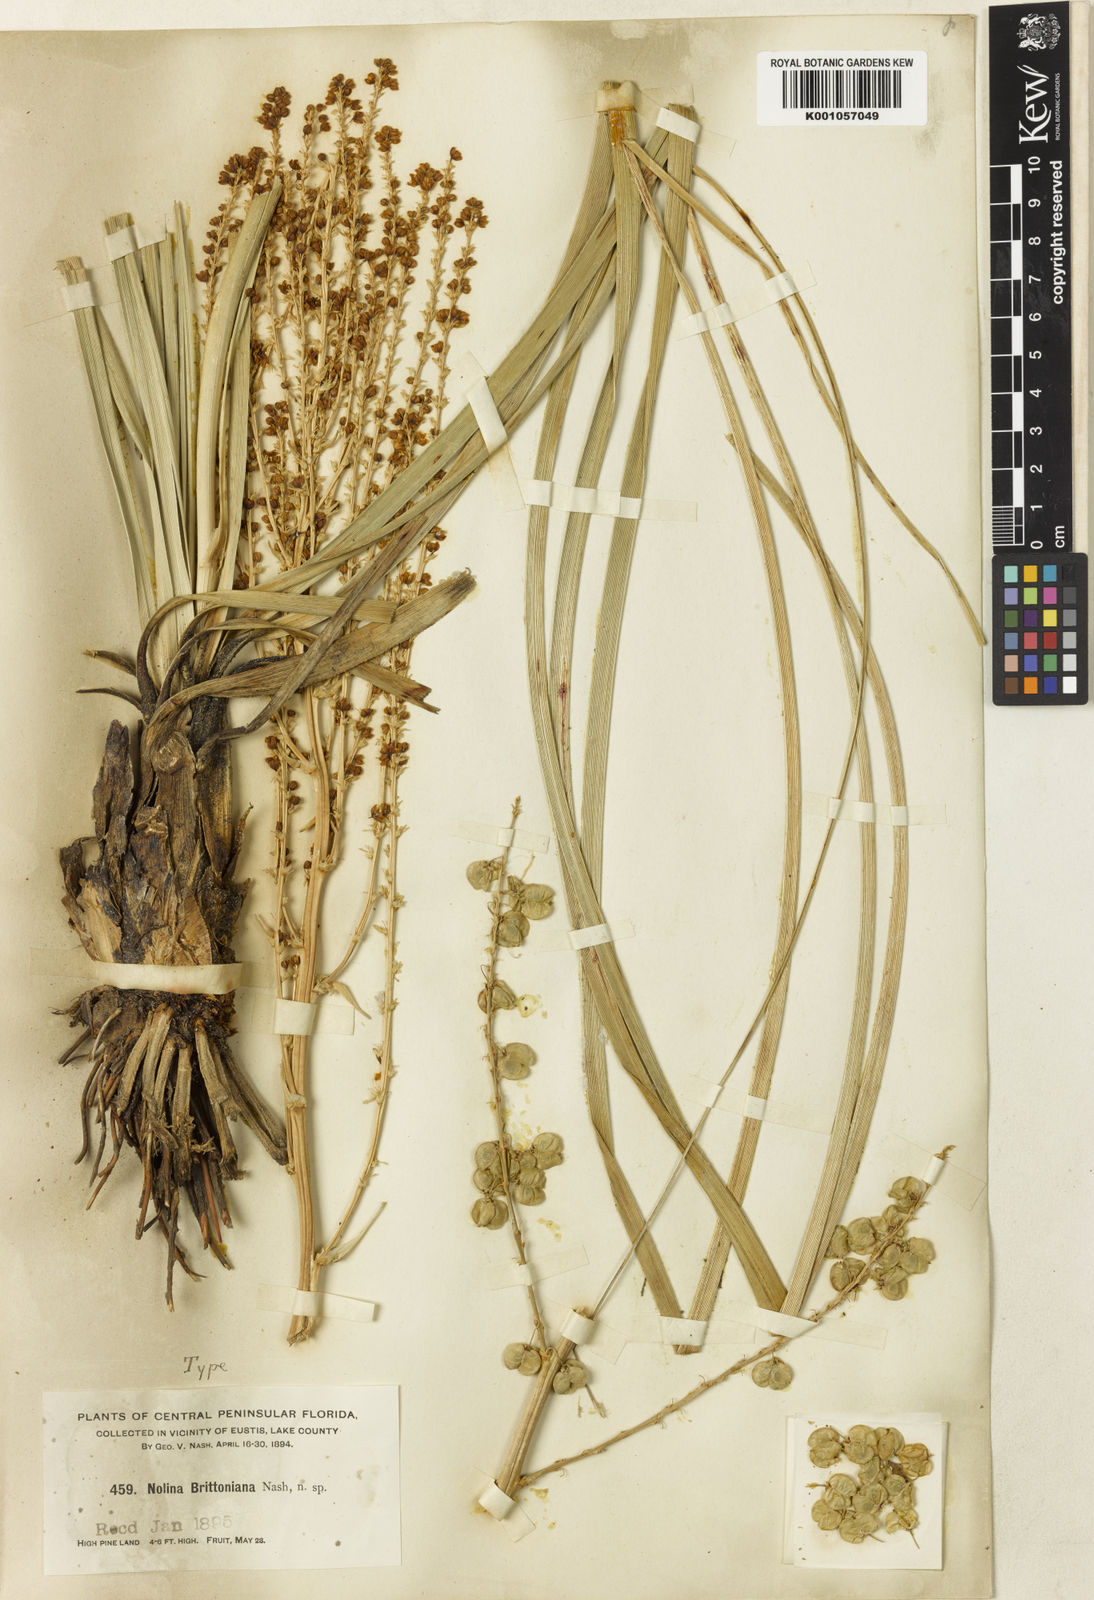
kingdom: Plantae
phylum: Tracheophyta
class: Liliopsida
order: Asparagales
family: Asparagaceae
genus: Nolina
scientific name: Nolina brittoniana
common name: Britton's bear-grass
